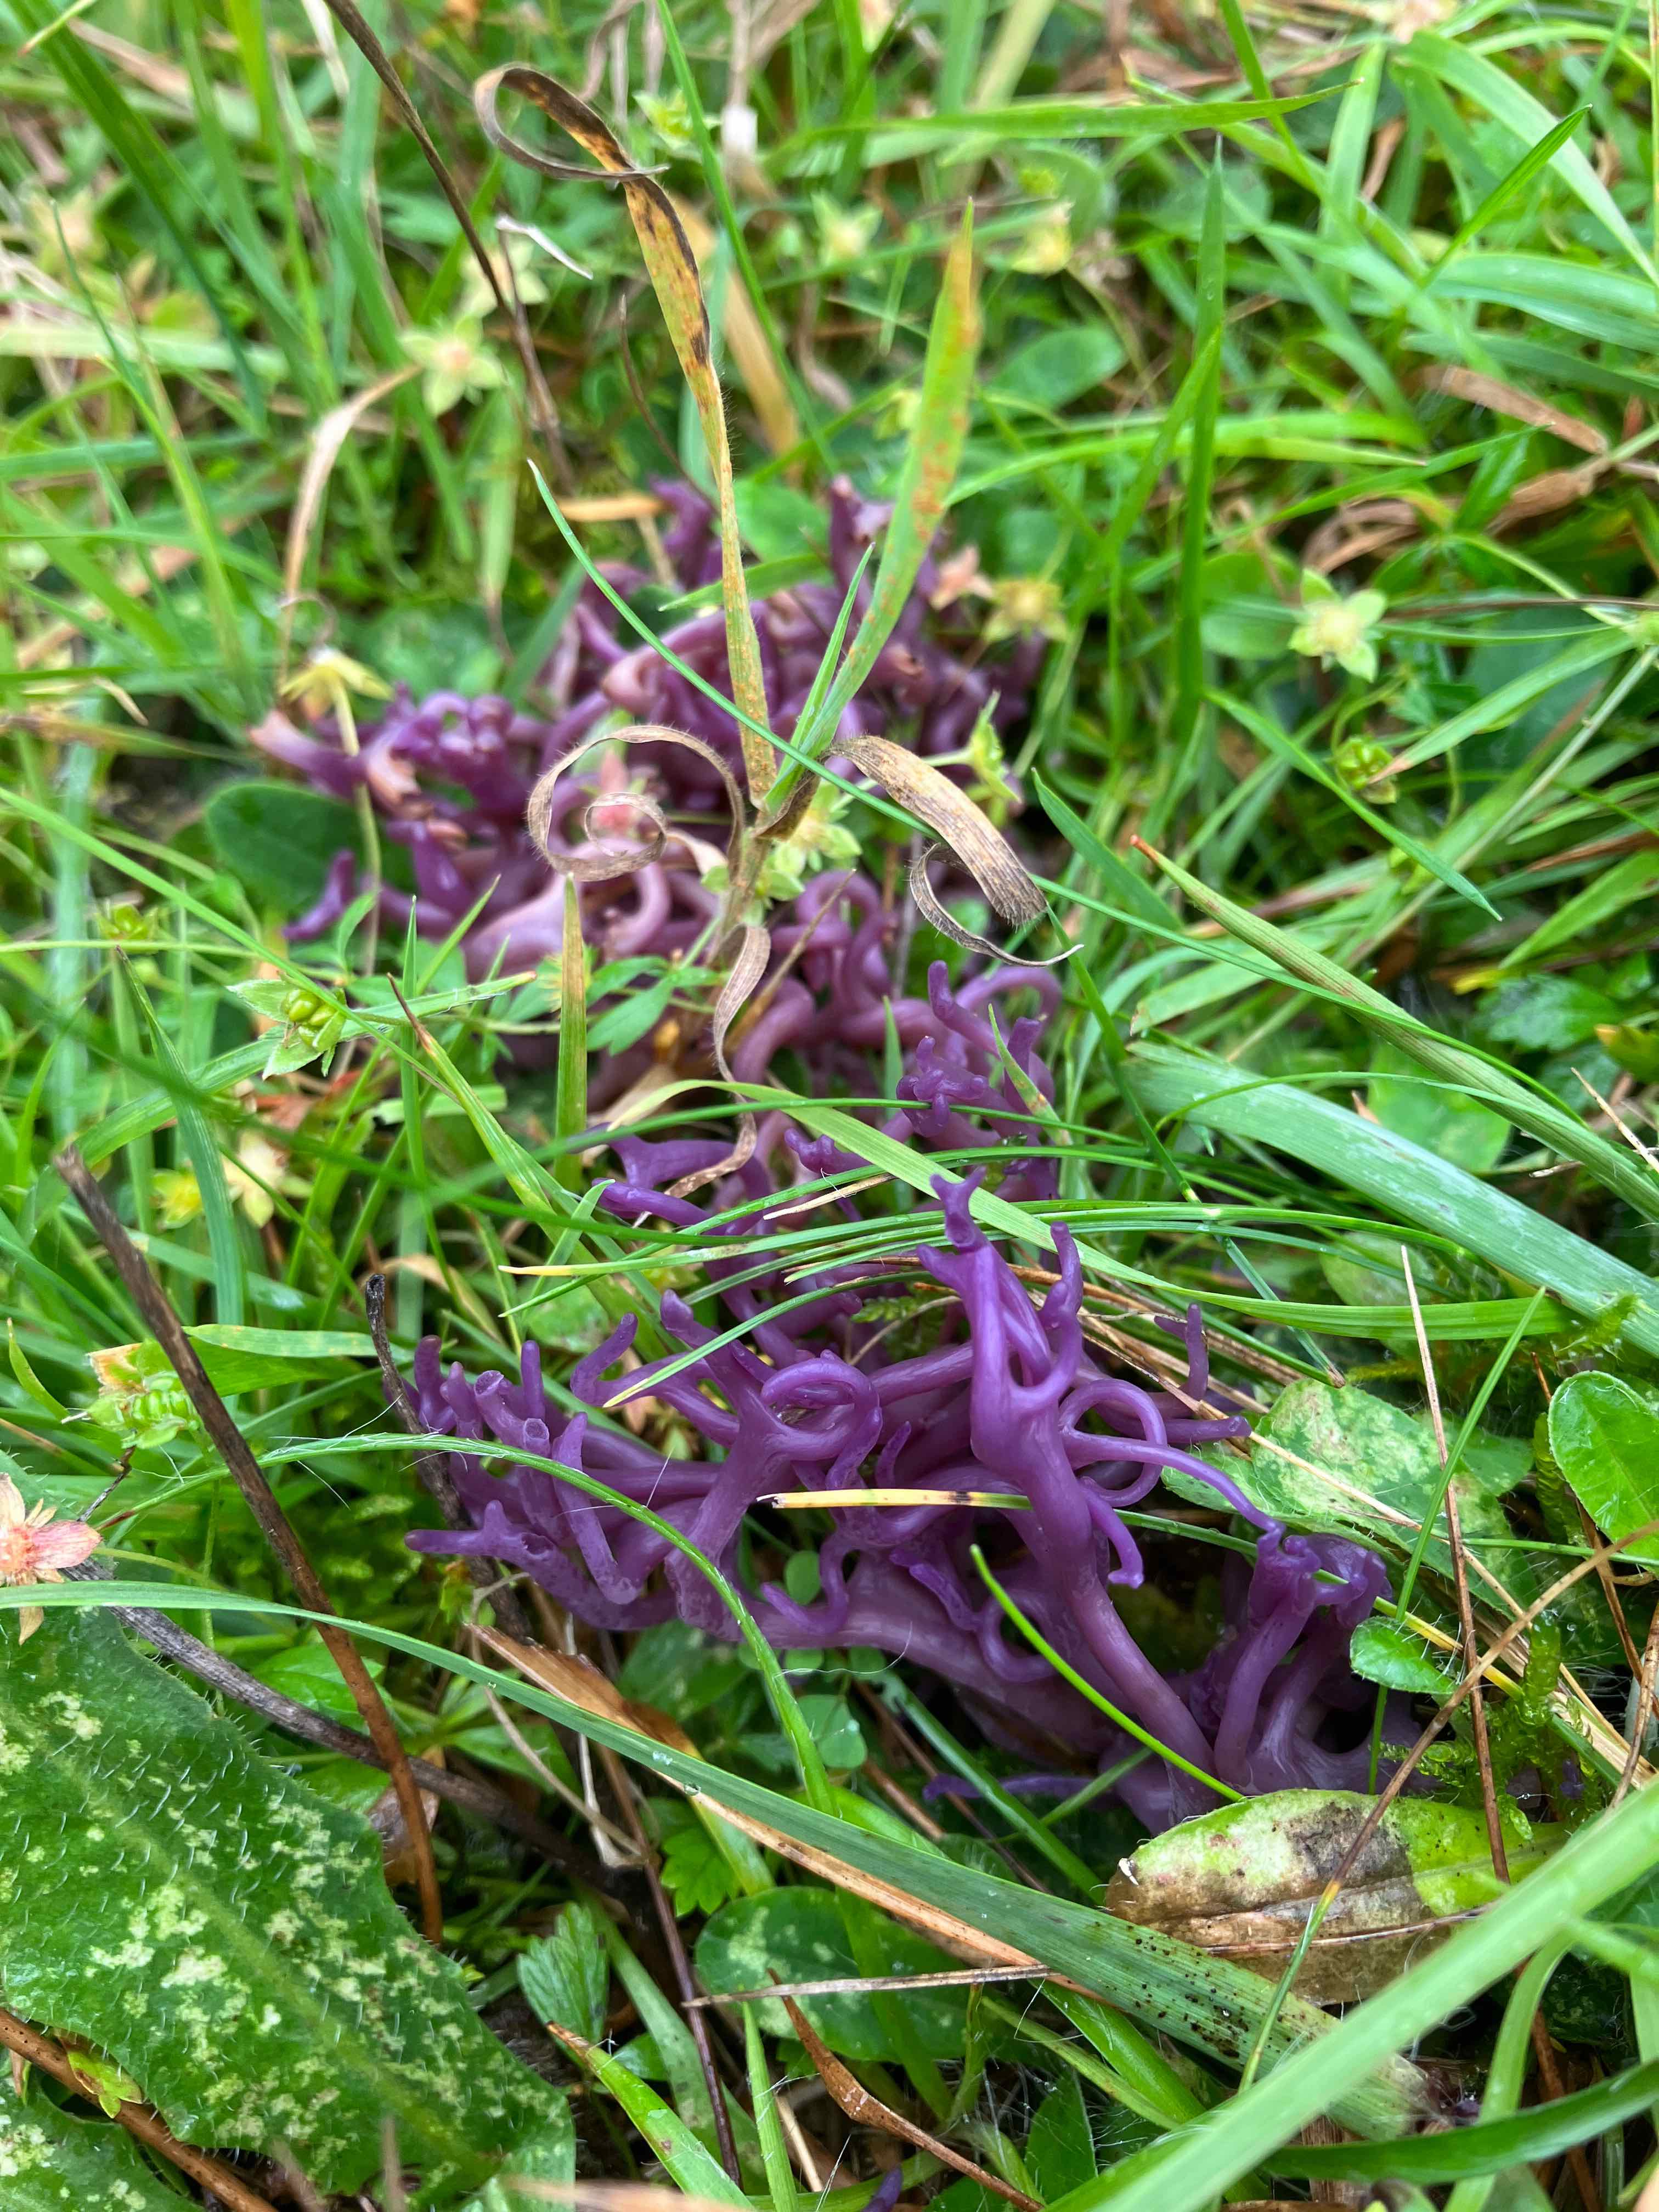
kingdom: Fungi
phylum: Basidiomycota
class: Agaricomycetes
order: Agaricales
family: Clavariaceae
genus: Clavaria
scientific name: Clavaria zollingeri
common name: purpur-køllesvamp
